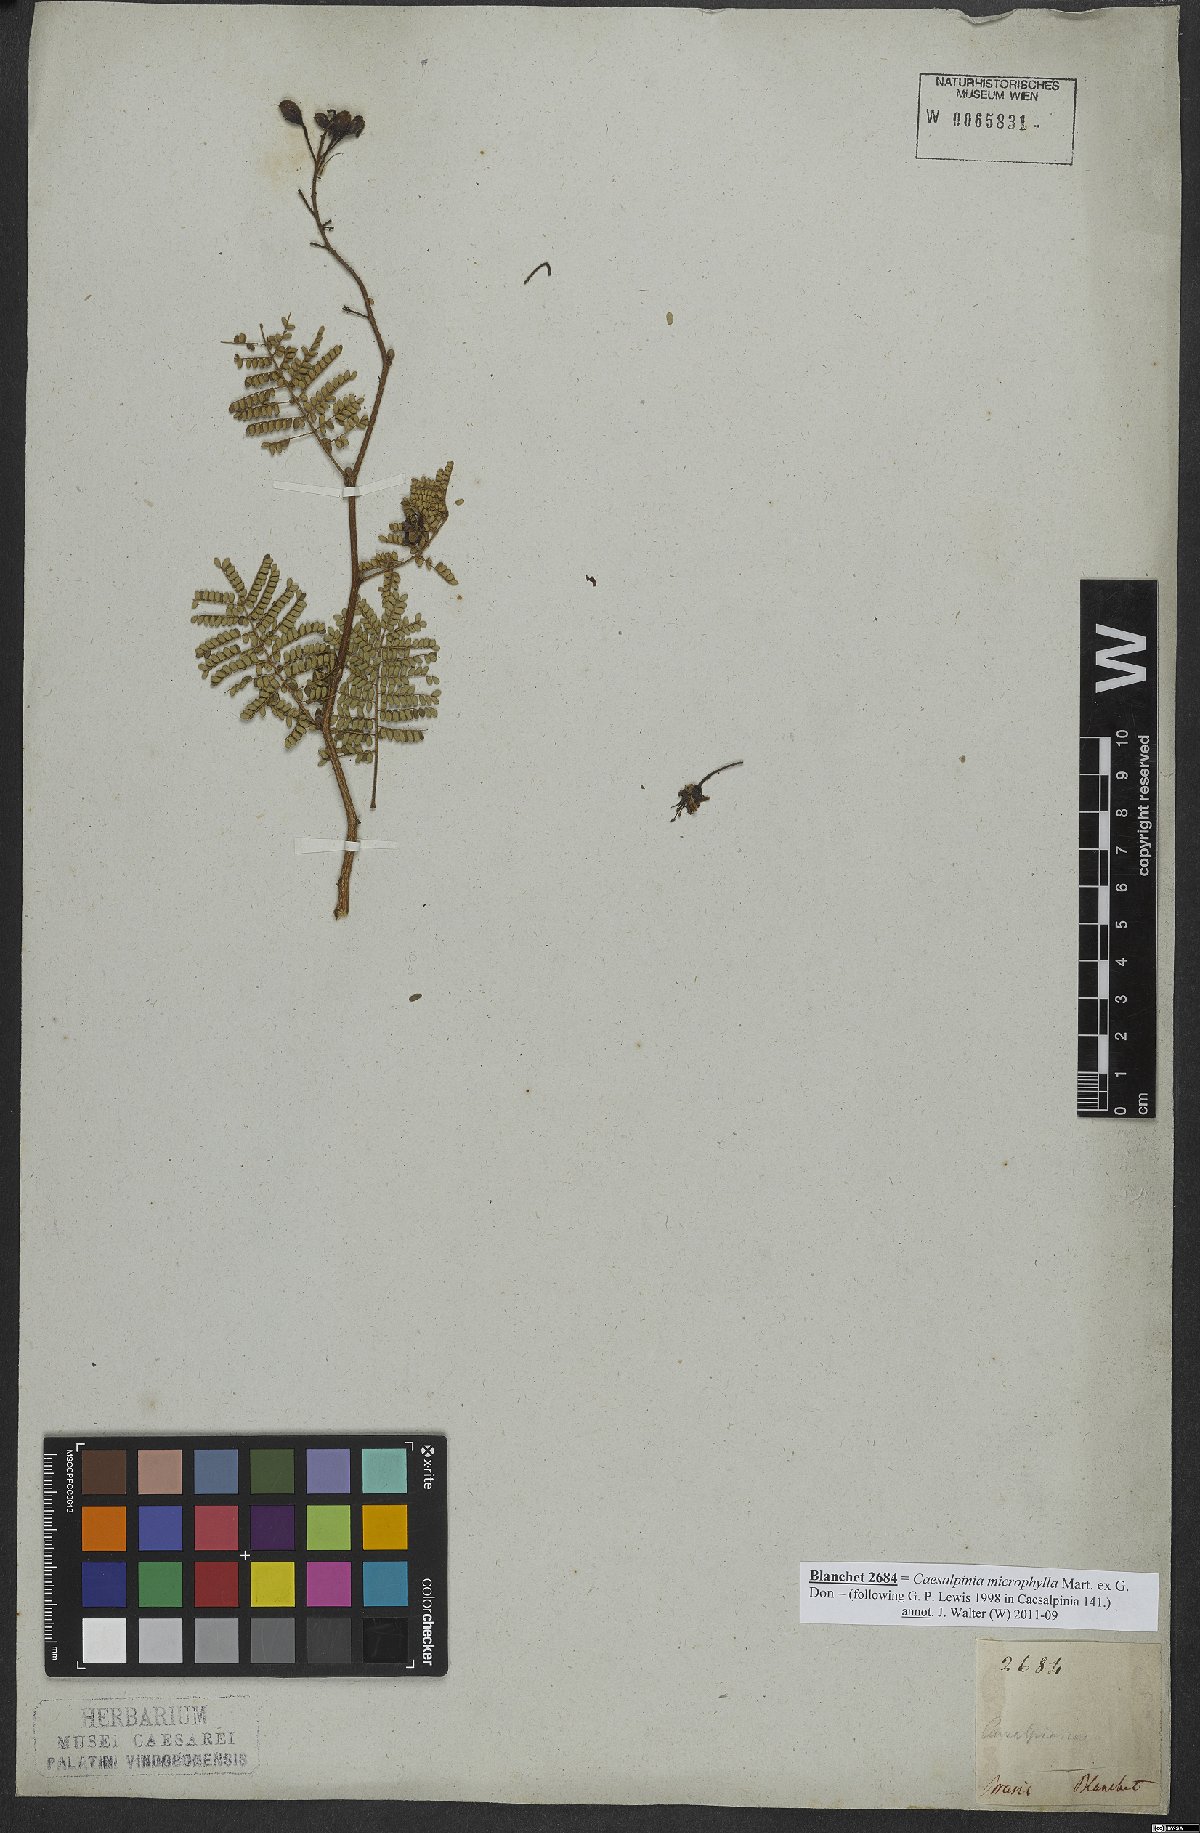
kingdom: Plantae
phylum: Tracheophyta
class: Magnoliopsida
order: Fabales
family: Fabaceae
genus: Cenostigma
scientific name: Cenostigma microphyllum
